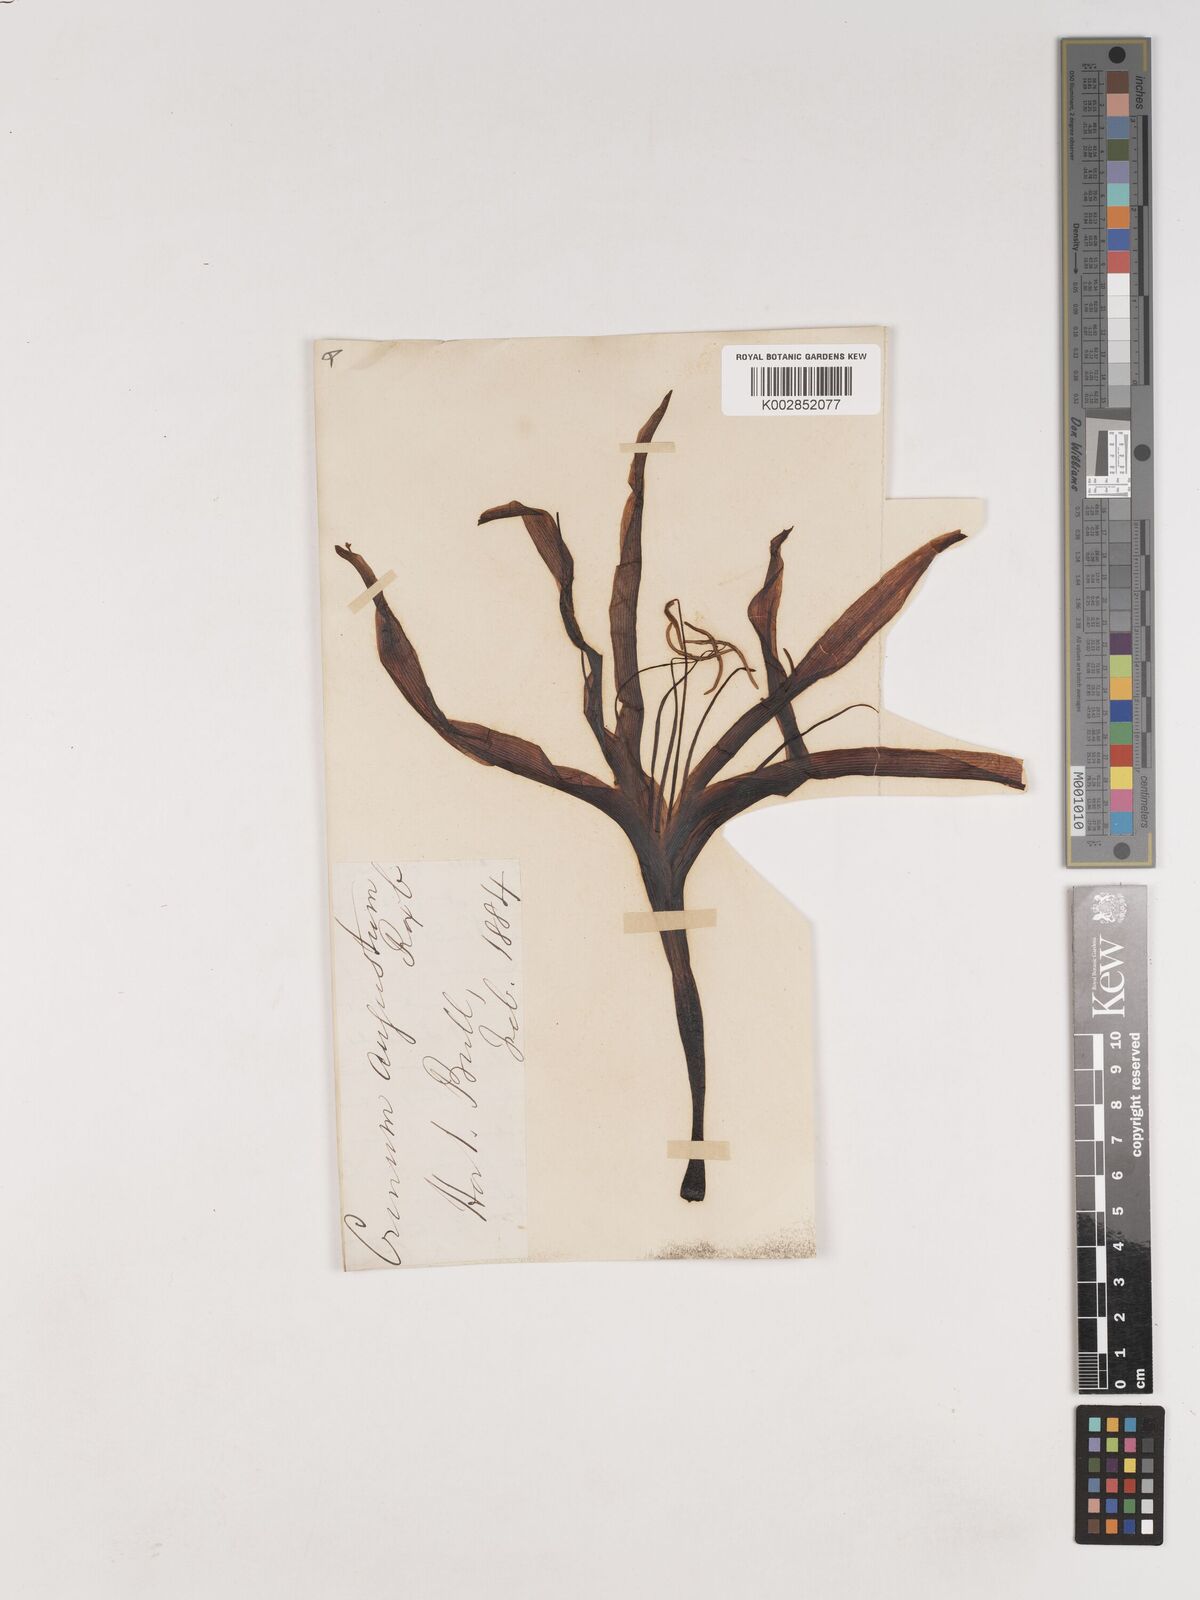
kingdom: Plantae
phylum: Tracheophyta
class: Liliopsida
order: Asparagales
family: Amaryllidaceae
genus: Crinum
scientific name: Crinum amabile
